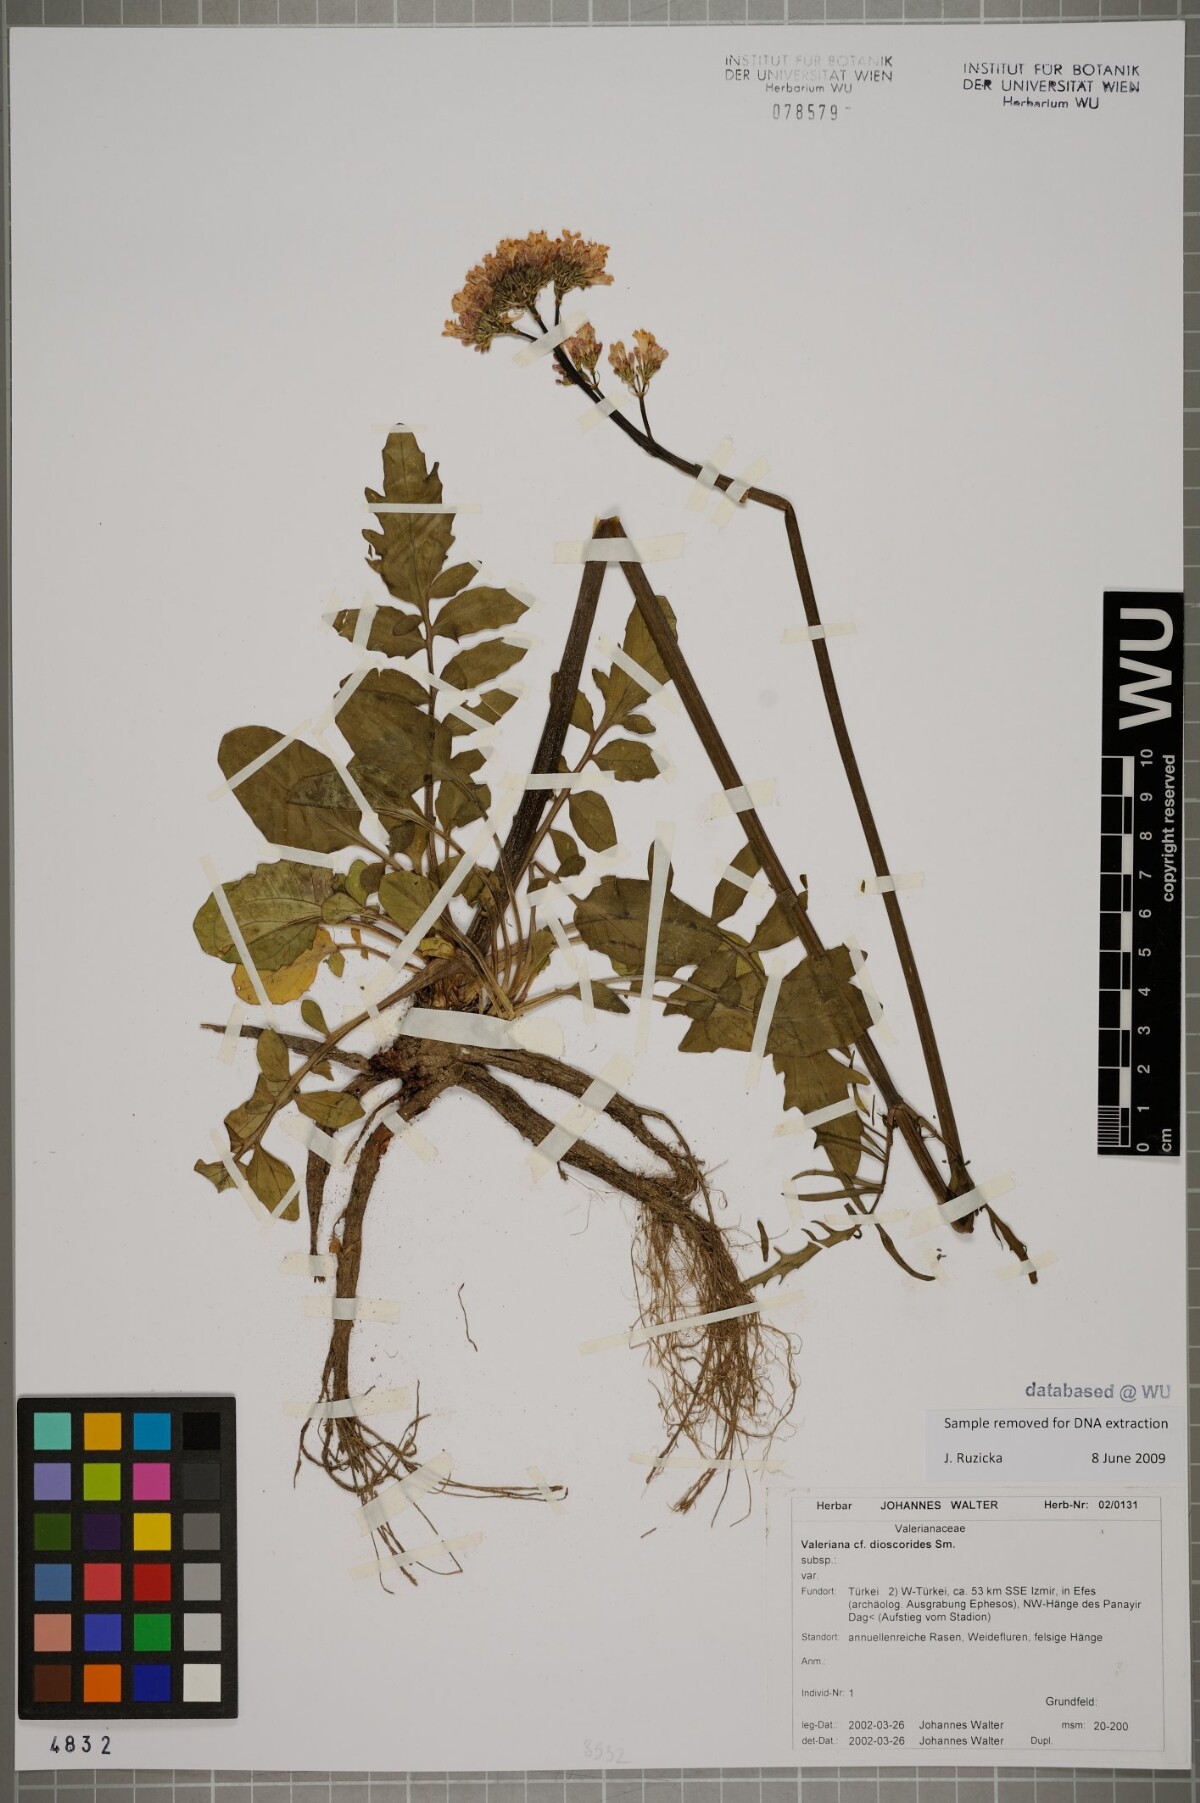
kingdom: Plantae
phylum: Tracheophyta
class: Magnoliopsida
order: Dipsacales
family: Caprifoliaceae
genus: Valeriana
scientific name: Valeriana dioscoridis
